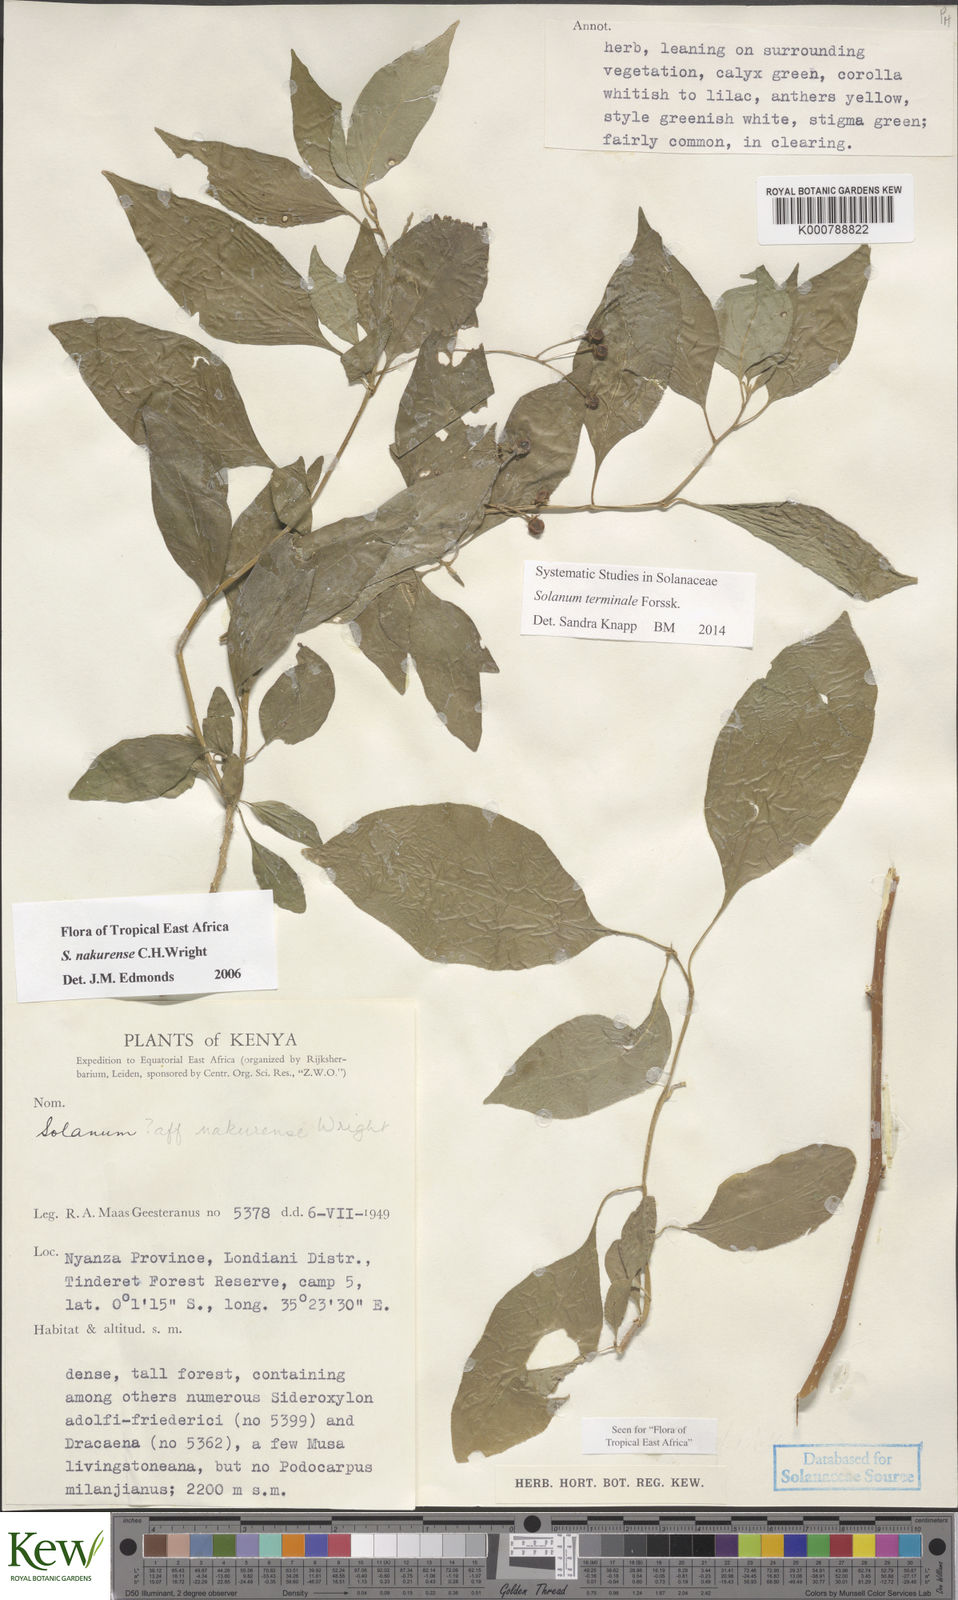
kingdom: Plantae
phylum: Tracheophyta
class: Magnoliopsida
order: Solanales
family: Solanaceae
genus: Solanum
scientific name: Solanum terminale
